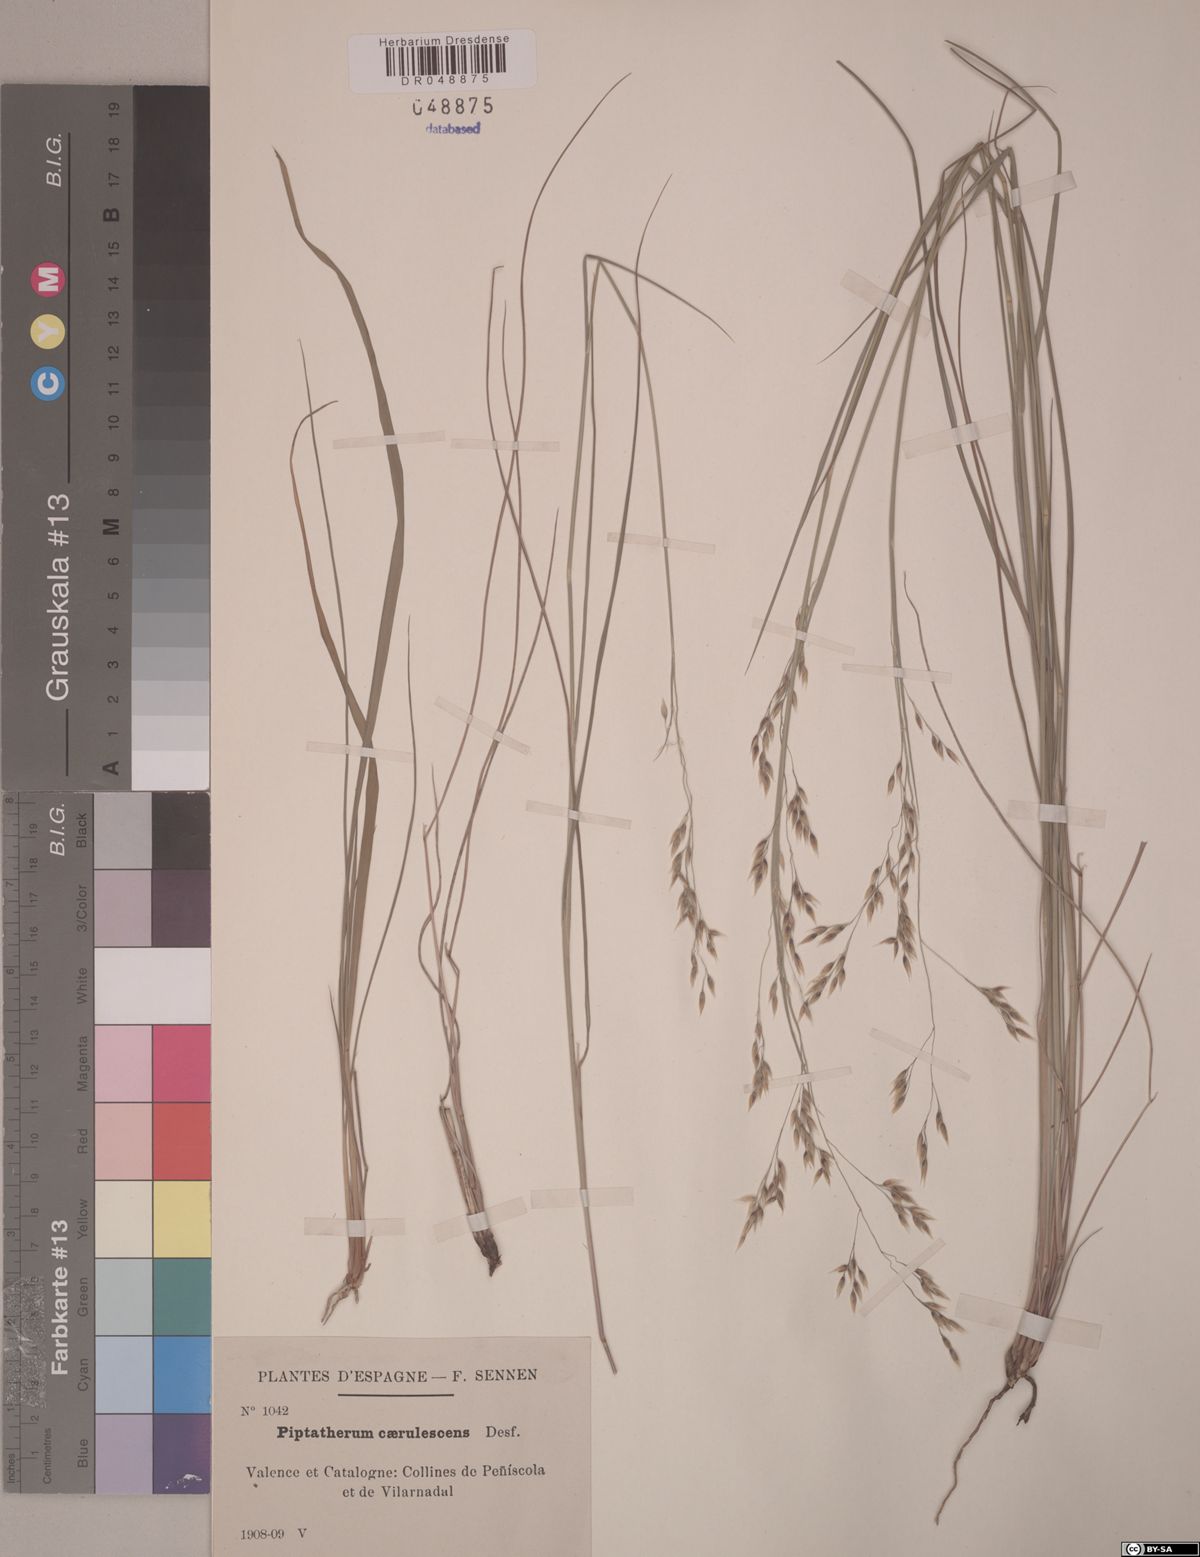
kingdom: Plantae
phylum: Tracheophyta
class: Liliopsida
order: Poales
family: Poaceae
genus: Piptatherum
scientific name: Piptatherum coerulescens
